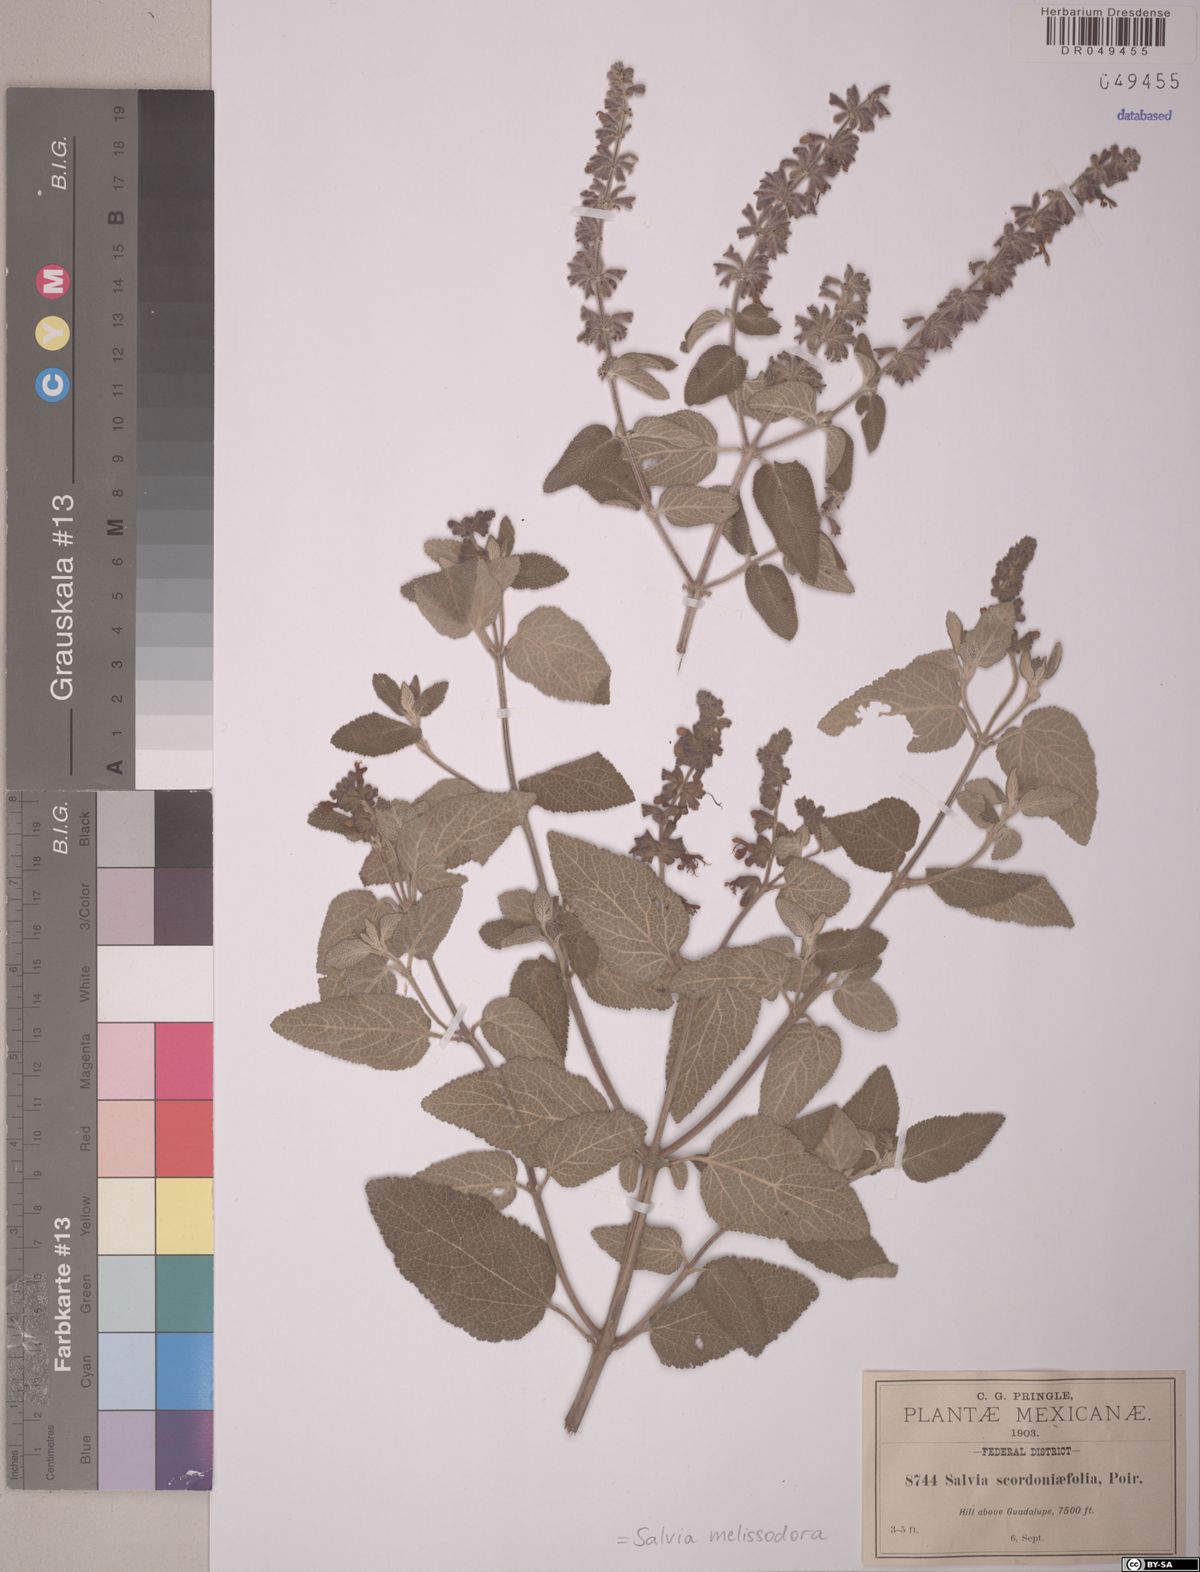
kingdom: Plantae
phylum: Tracheophyta
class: Magnoliopsida
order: Lamiales
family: Lamiaceae
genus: Salvia
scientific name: Salvia melissodora
